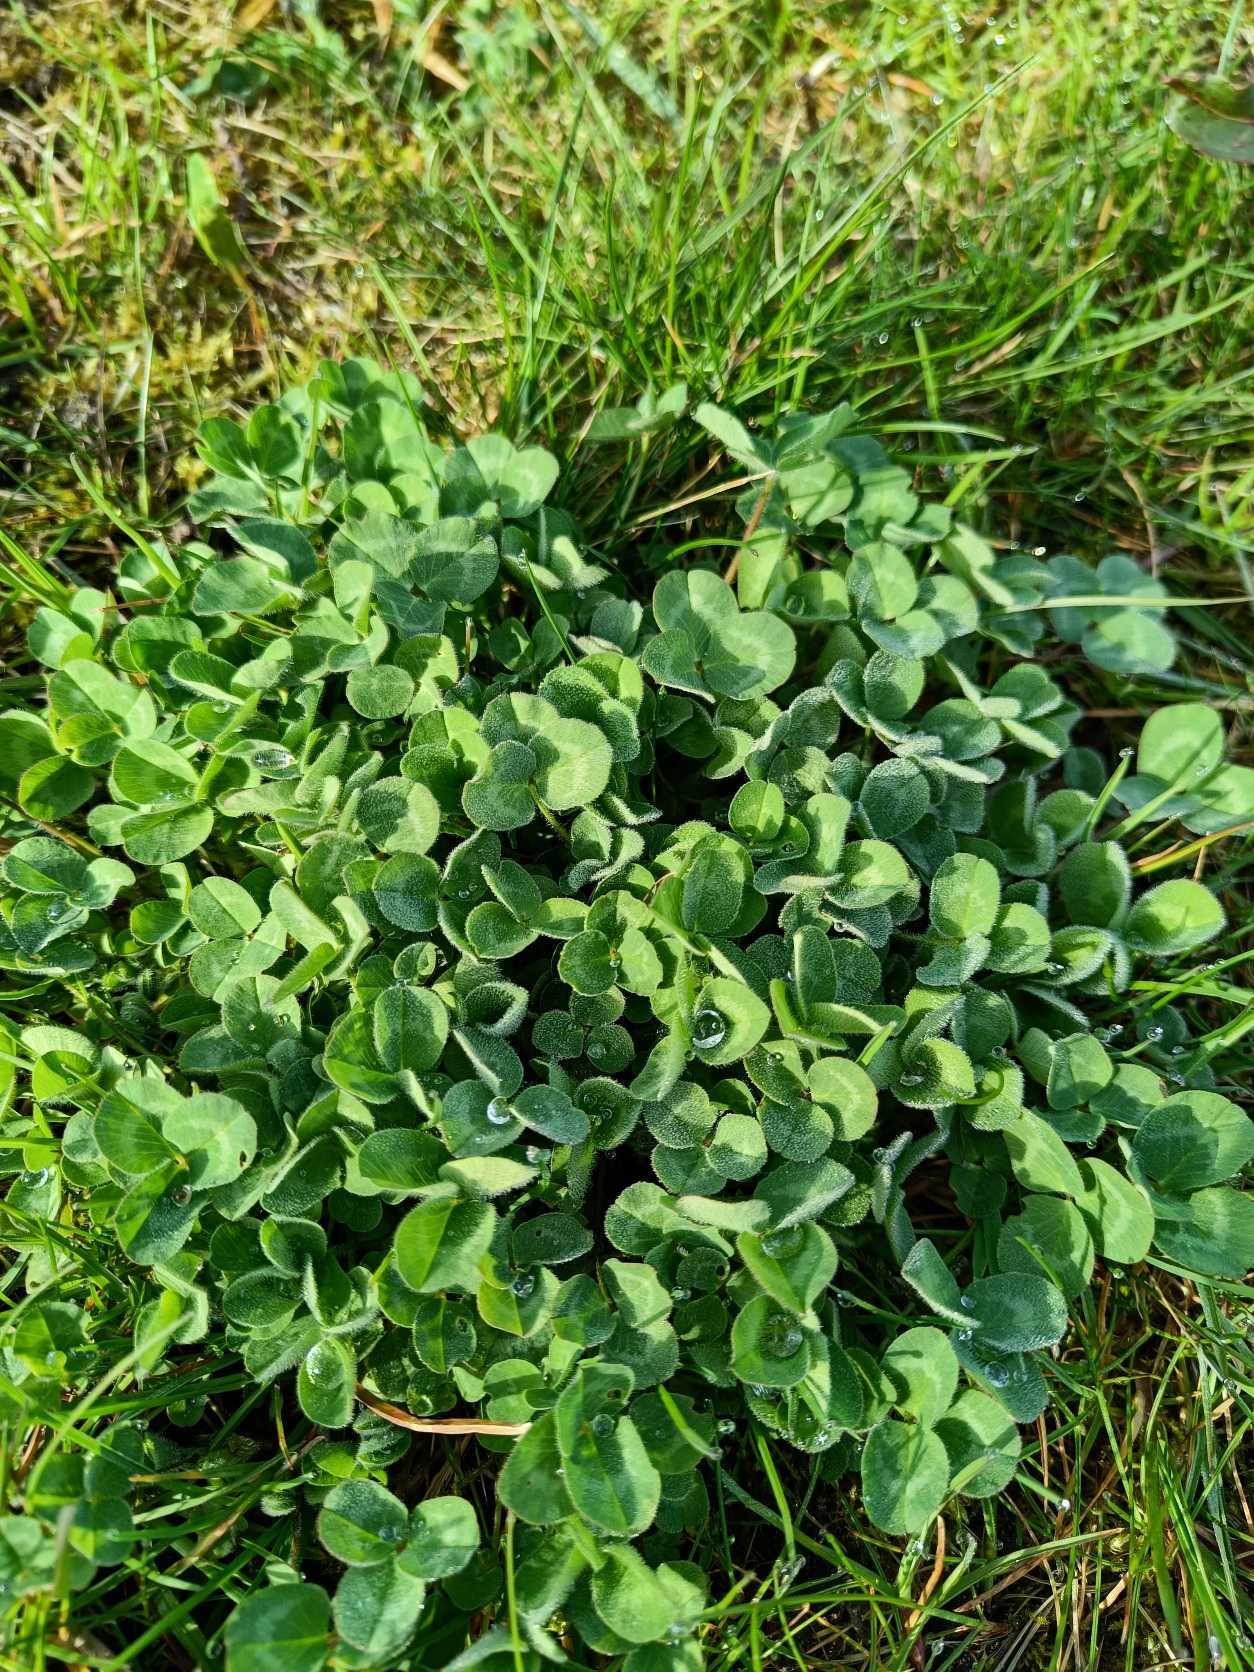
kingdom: Plantae
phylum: Tracheophyta
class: Magnoliopsida
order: Fabales
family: Fabaceae
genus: Trifolium
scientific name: Trifolium pratense
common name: Rød-kløver
